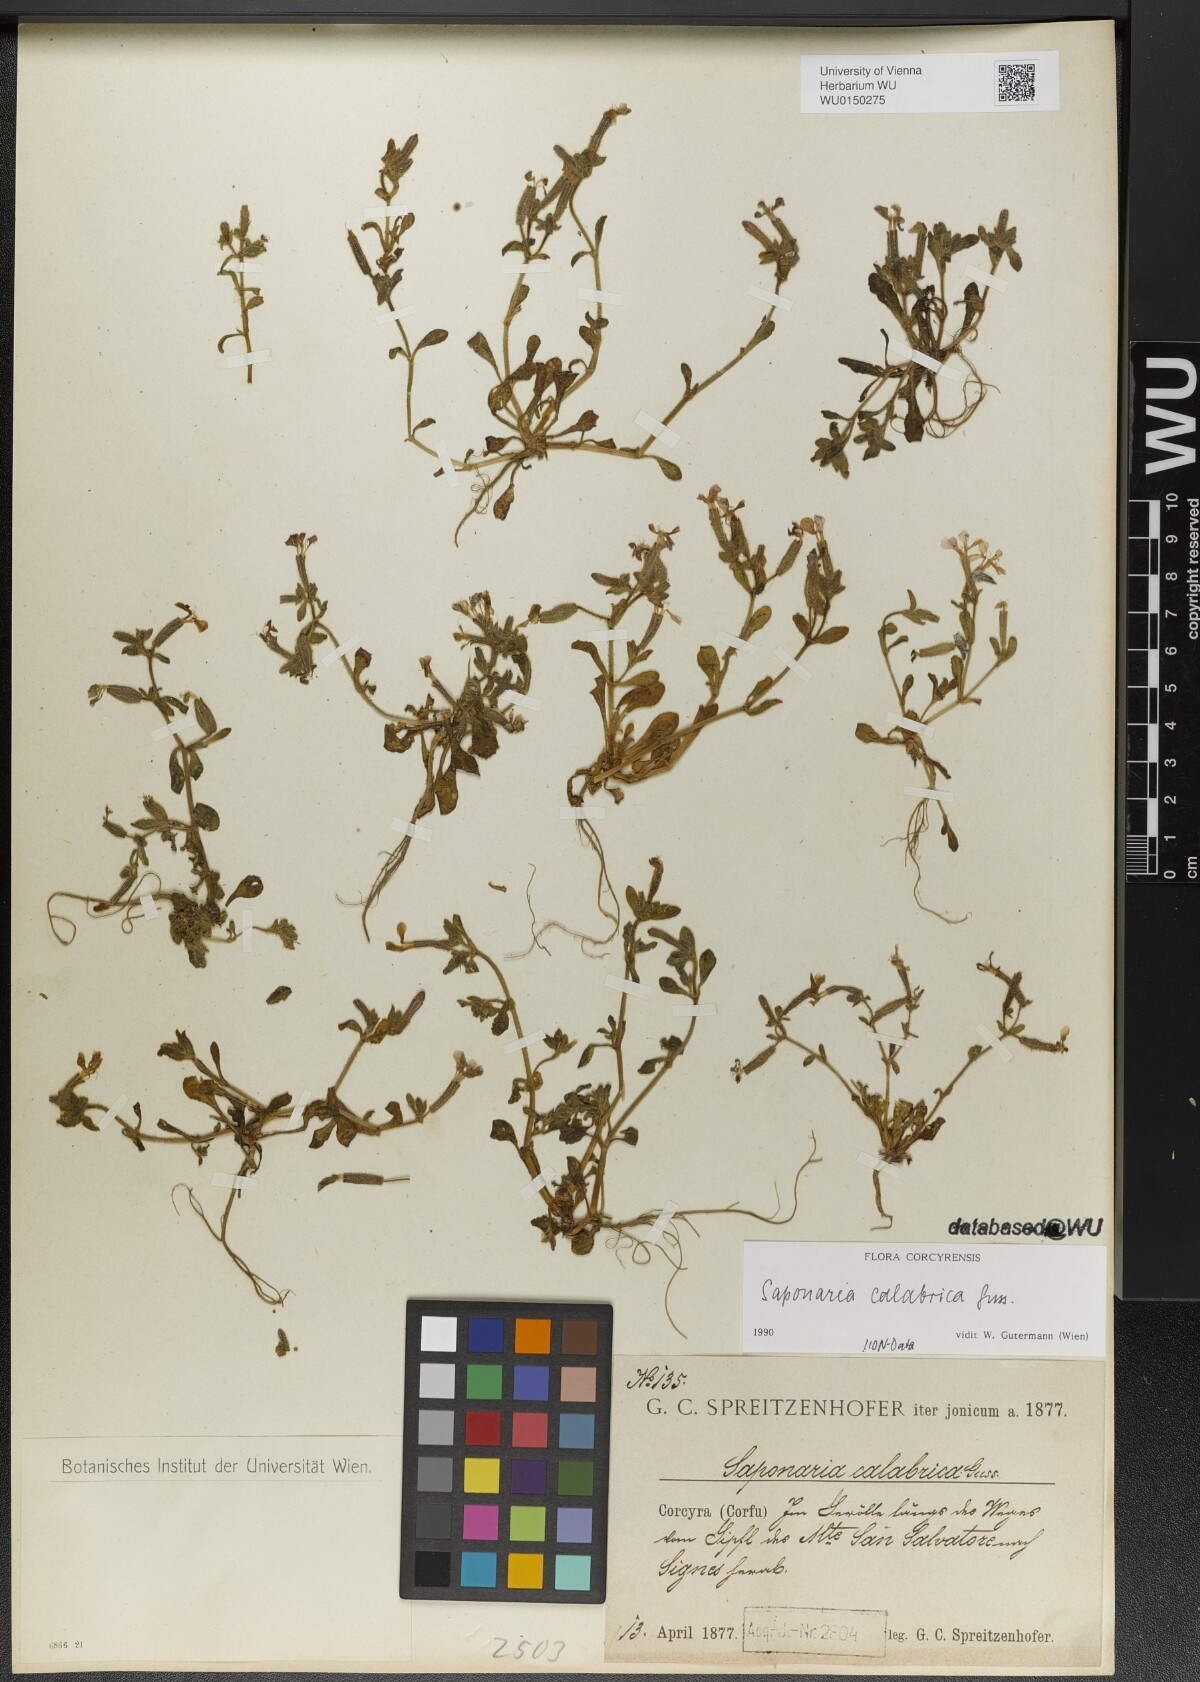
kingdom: Plantae
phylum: Tracheophyta
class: Magnoliopsida
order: Caryophyllales
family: Caryophyllaceae
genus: Saponaria
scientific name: Saponaria calabrica
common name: Adriatic soapwort
